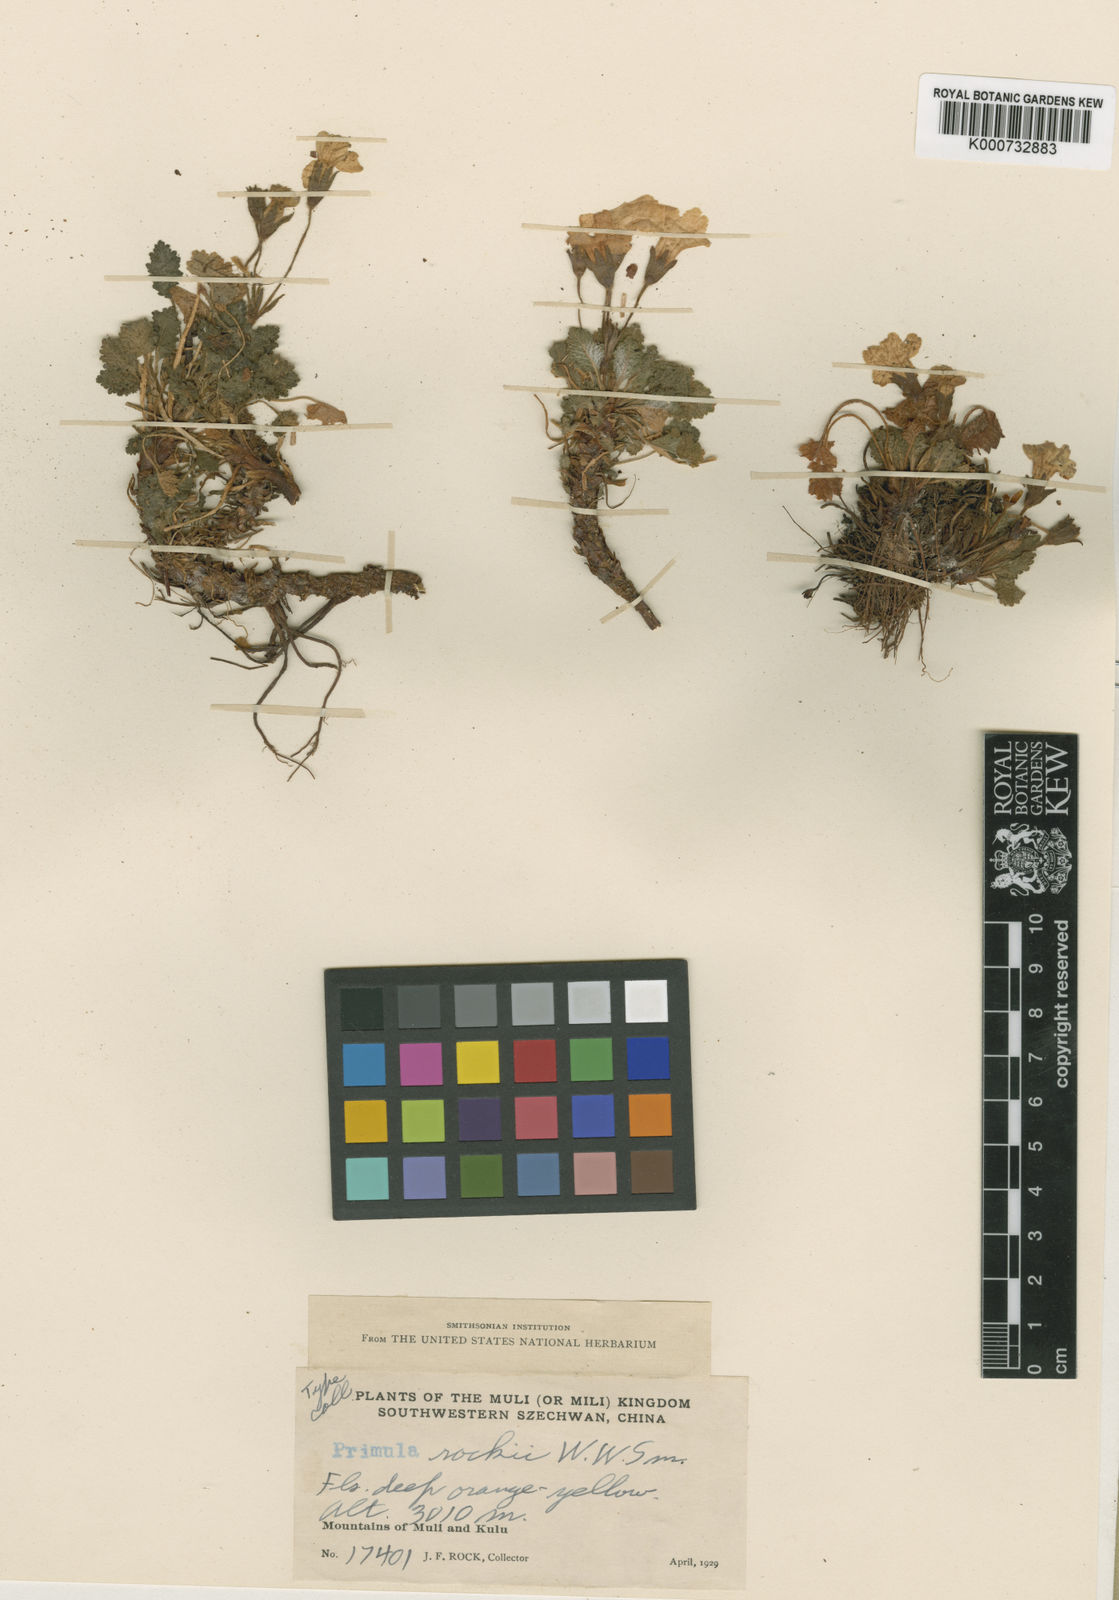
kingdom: Plantae
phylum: Tracheophyta
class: Magnoliopsida
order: Ericales
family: Primulaceae
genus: Primula
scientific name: Primula rockii
